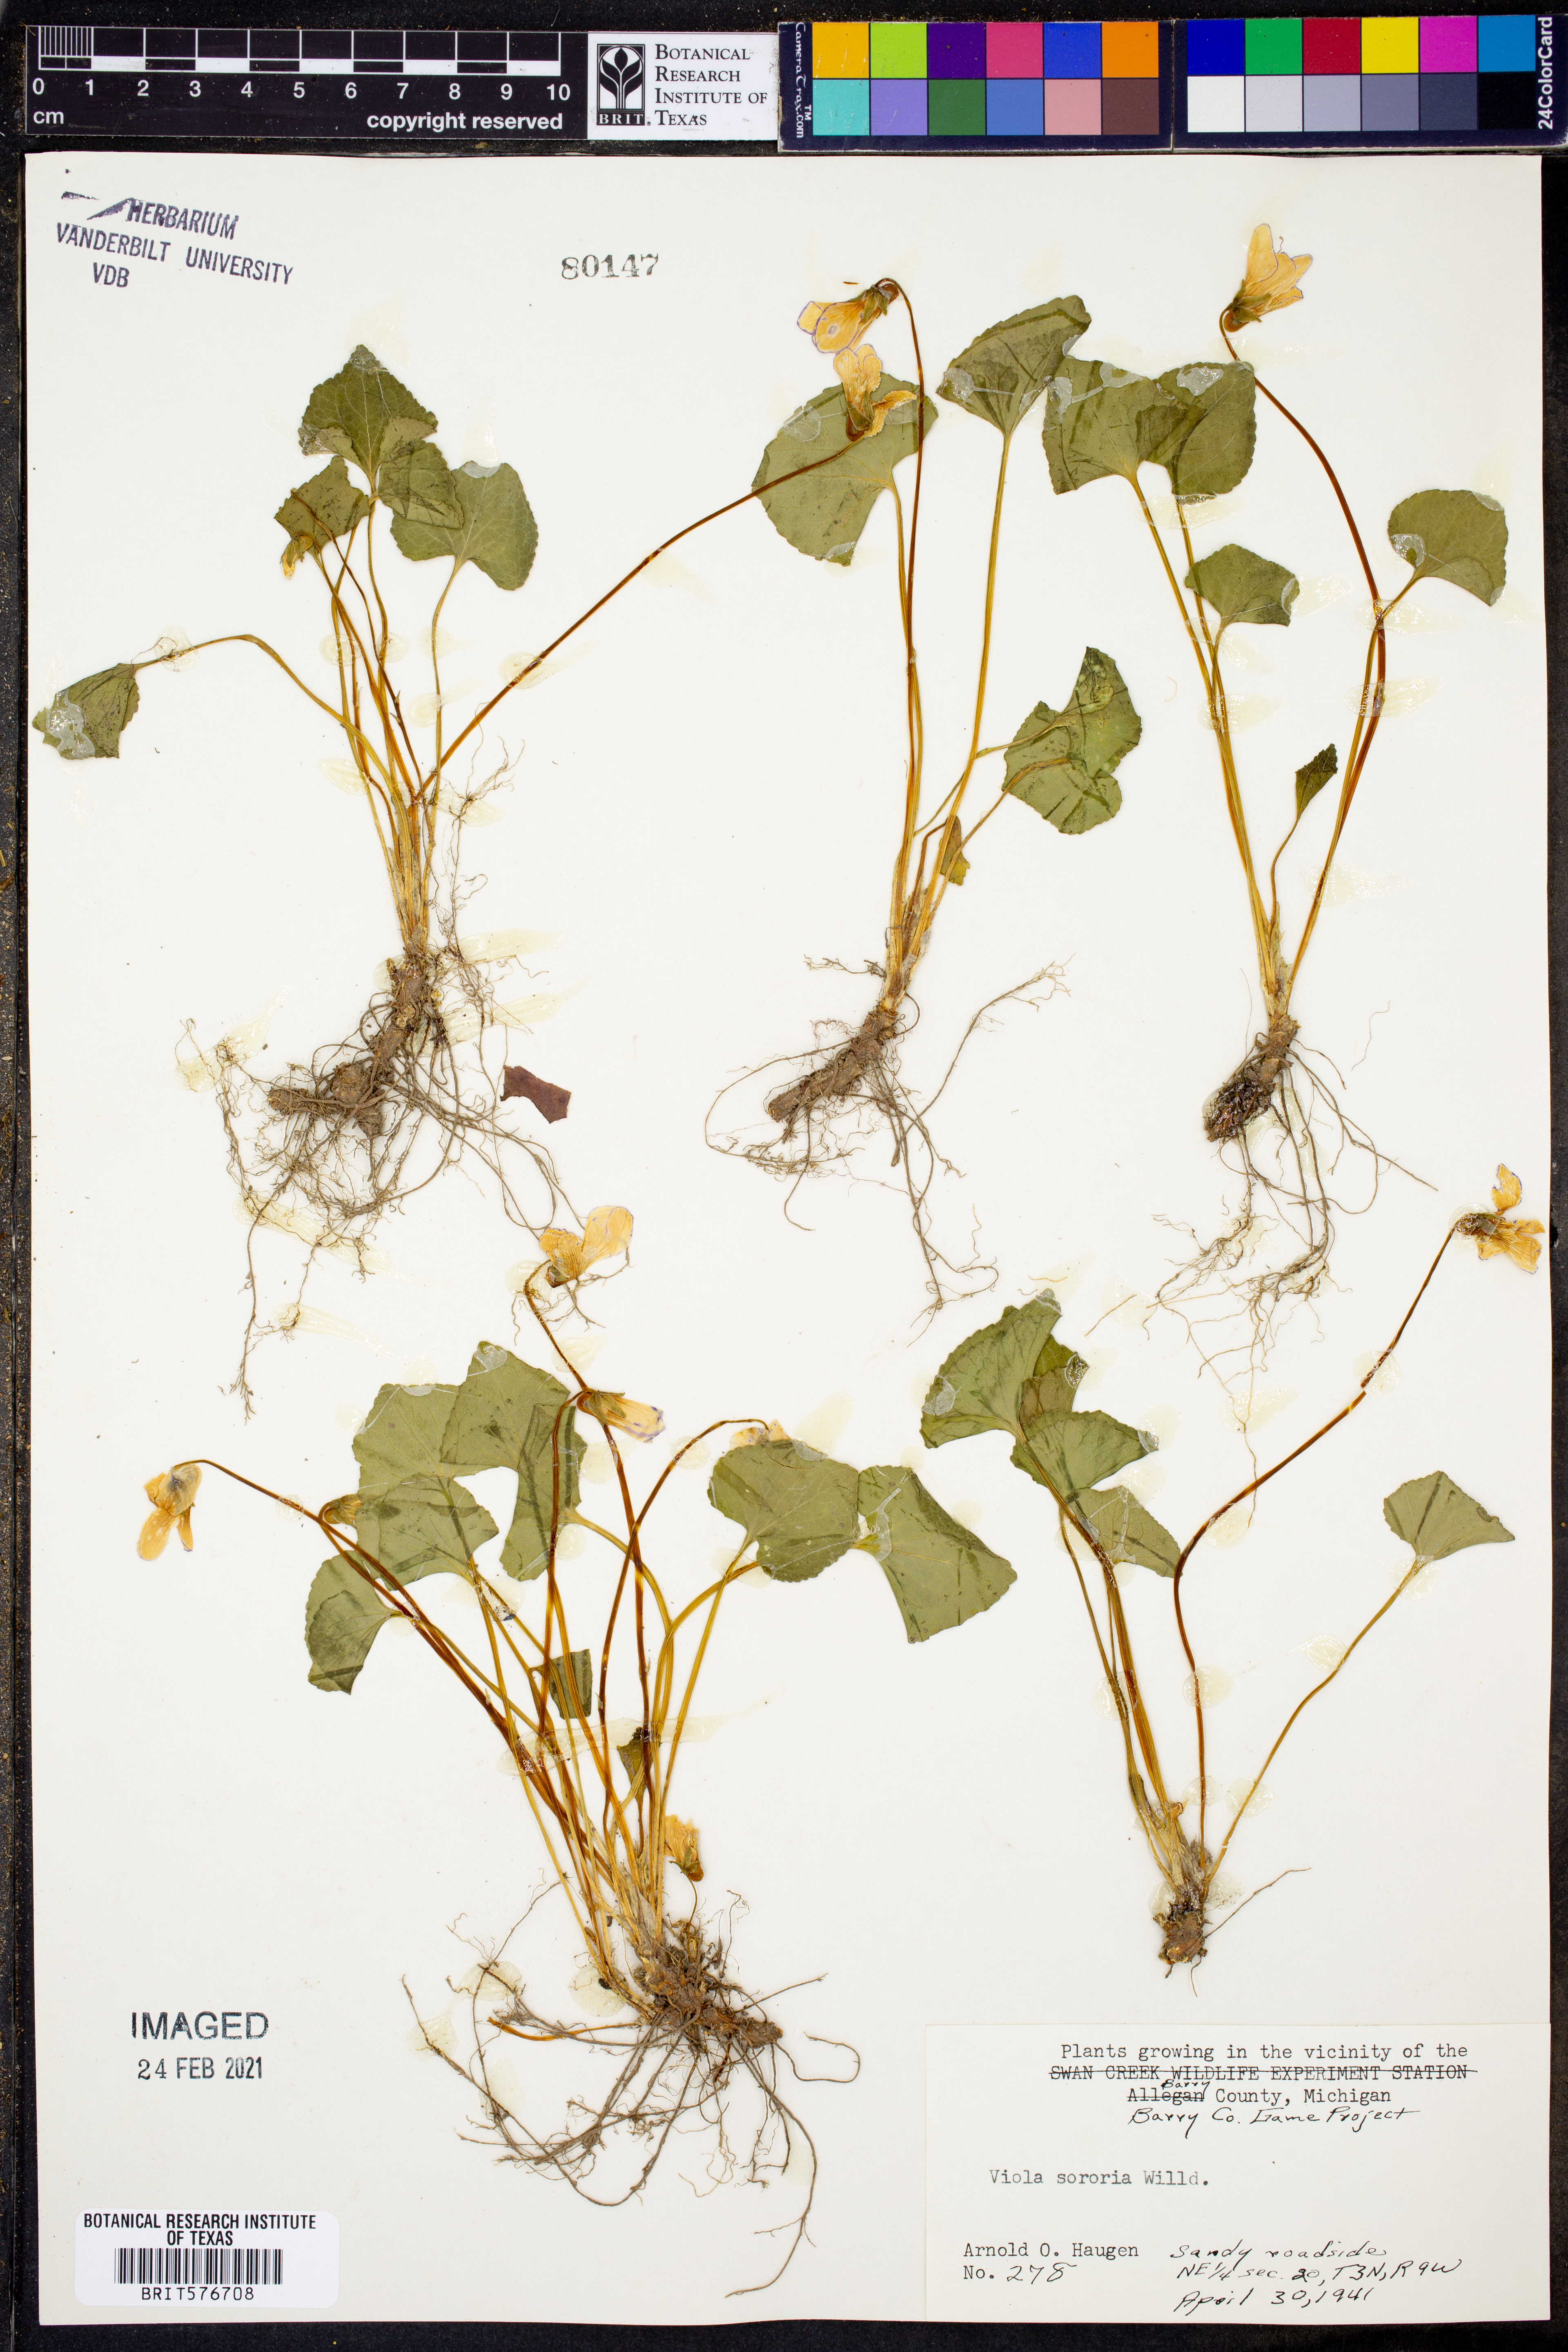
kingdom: Plantae
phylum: Tracheophyta
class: Magnoliopsida
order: Malpighiales
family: Violaceae
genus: Viola
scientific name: Viola sororia
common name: Dooryard violet
